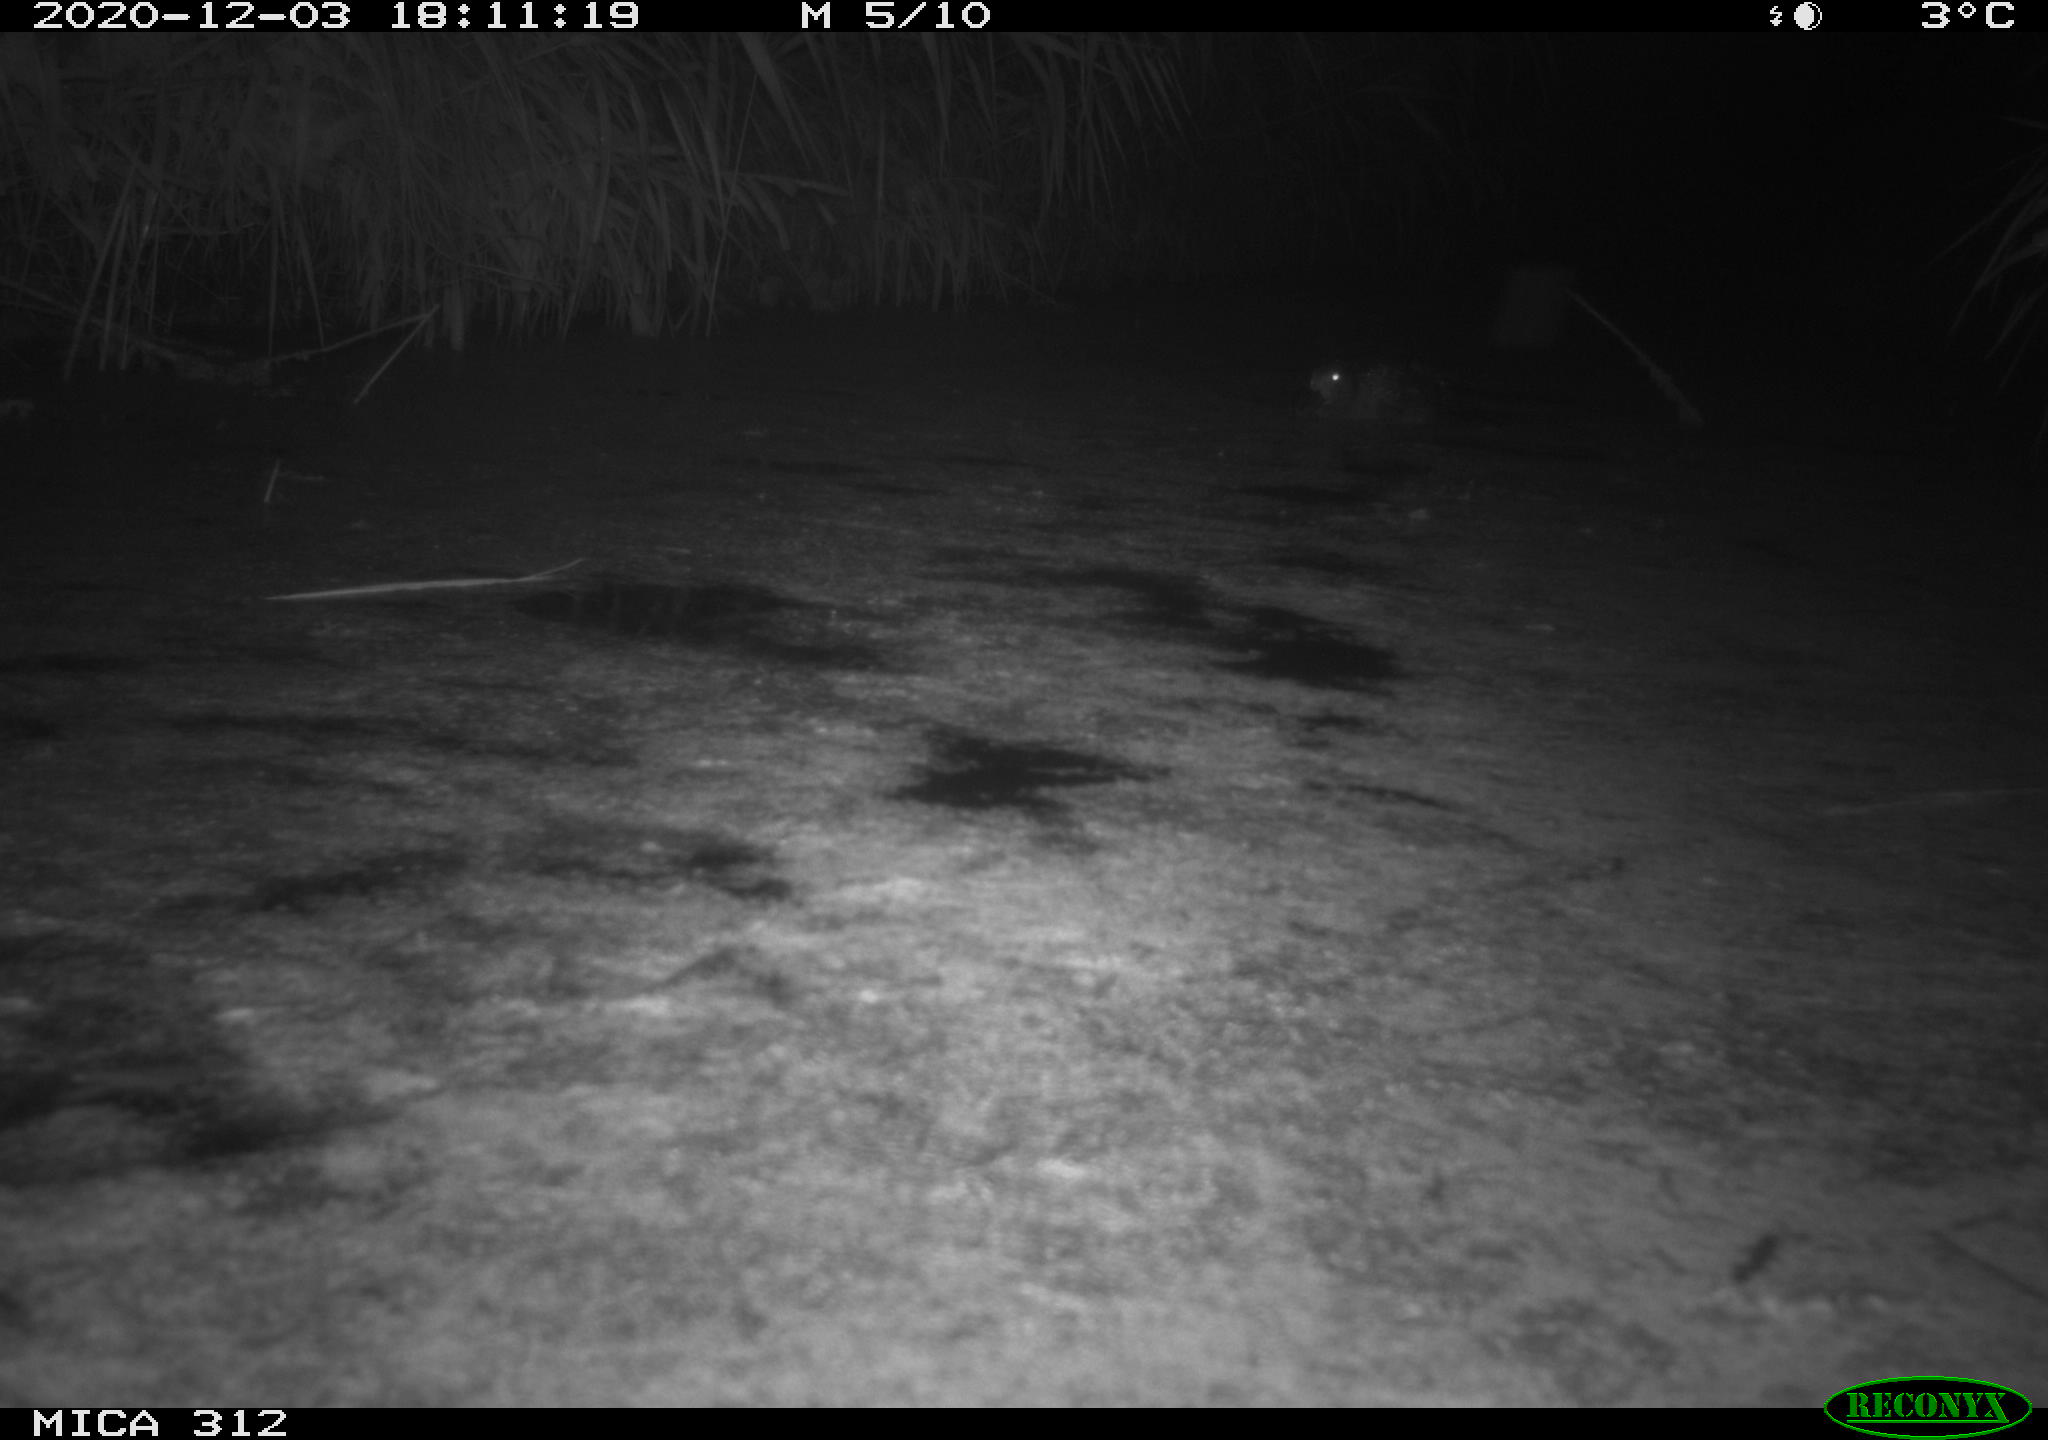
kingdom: Animalia
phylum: Chordata
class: Aves
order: Gruiformes
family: Rallidae
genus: Fulica
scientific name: Fulica atra
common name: Eurasian coot
